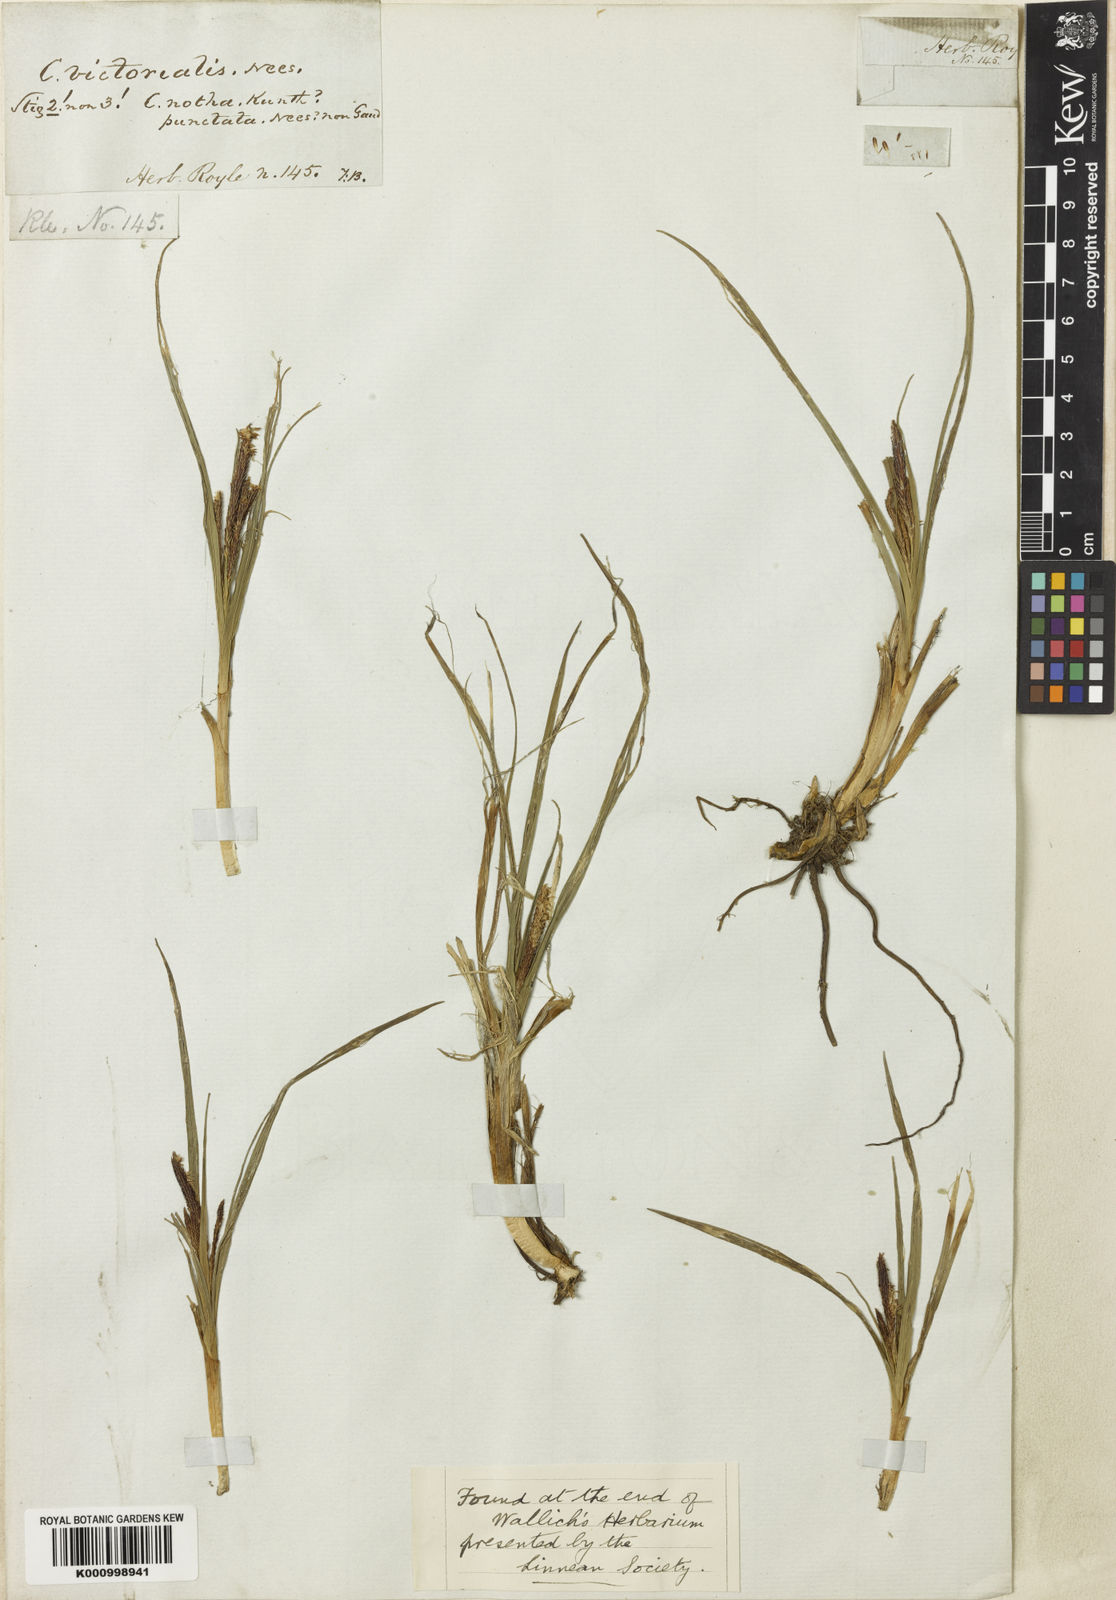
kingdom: Plantae
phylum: Tracheophyta
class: Liliopsida
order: Poales
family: Cyperaceae
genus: Carex
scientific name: Carex notha
